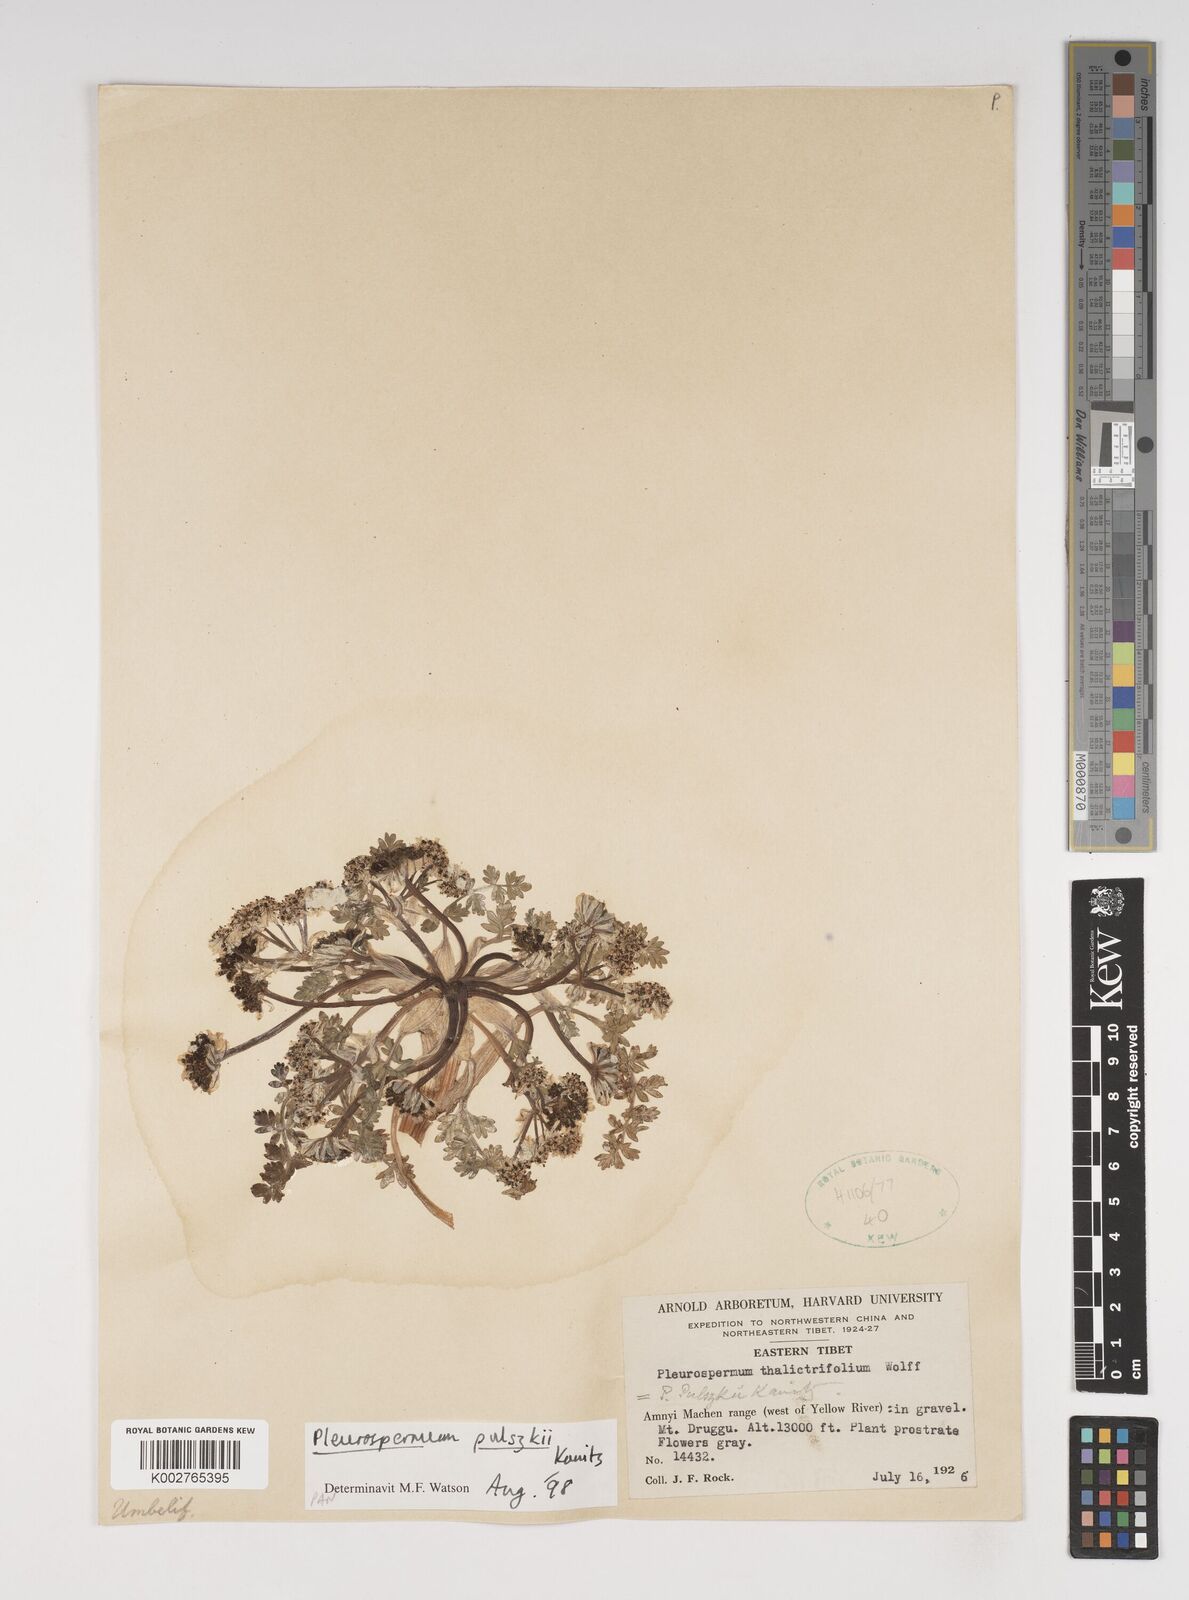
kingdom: Plantae
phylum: Tracheophyta
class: Magnoliopsida
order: Apiales
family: Apiaceae
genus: Hymenidium
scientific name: Hymenidium pulszkyi
